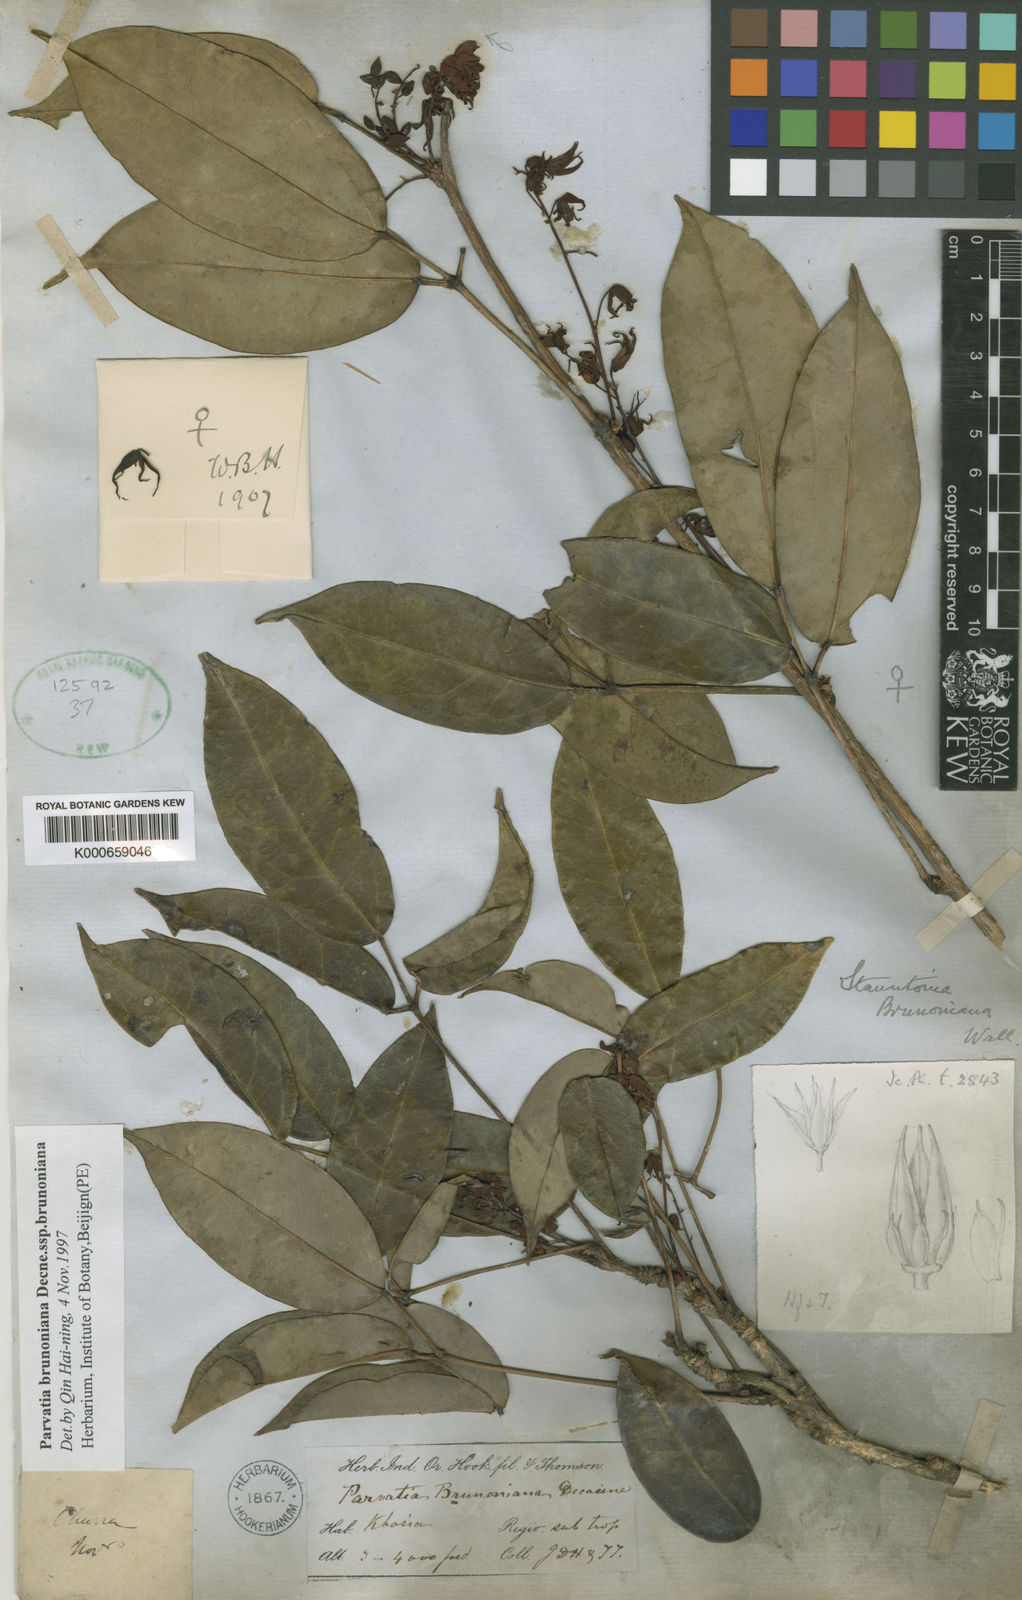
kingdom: Plantae
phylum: Tracheophyta
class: Magnoliopsida
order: Ranunculales
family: Lardizabalaceae
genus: Stauntonia
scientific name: Stauntonia brunoniana
